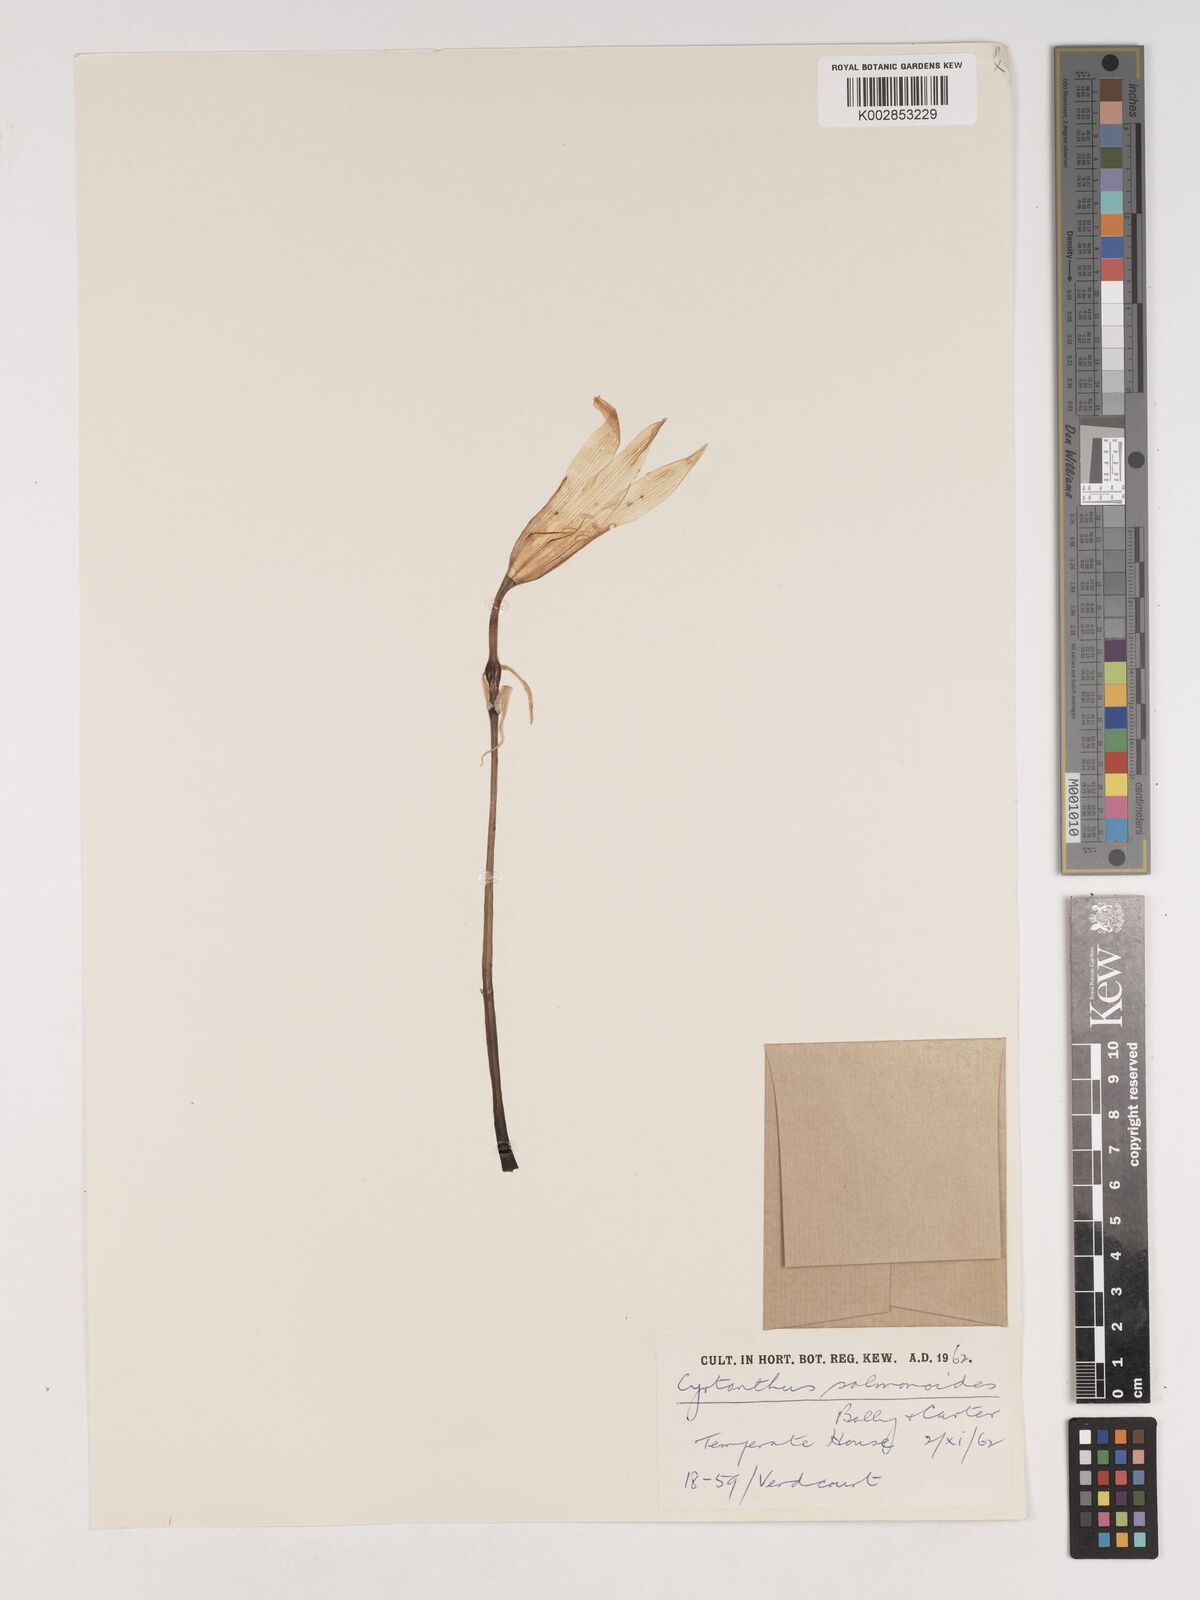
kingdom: Plantae
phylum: Tracheophyta
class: Liliopsida
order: Asparagales
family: Amaryllidaceae
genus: Cyrtanthus
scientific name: Cyrtanthus sanguineus
